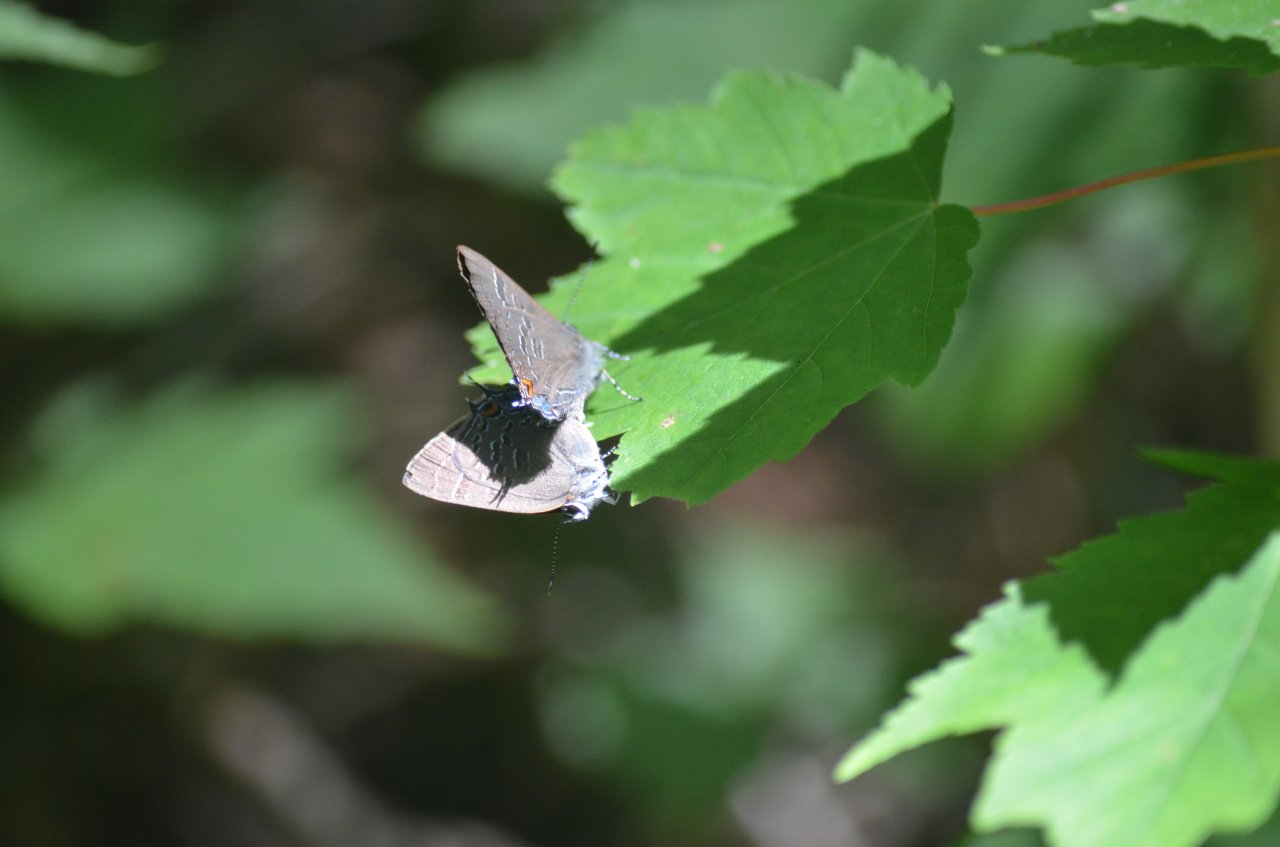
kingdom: Animalia
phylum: Arthropoda
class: Insecta
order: Lepidoptera
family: Lycaenidae
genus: Satyrium
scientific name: Satyrium calanus
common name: Banded Hairstreak
